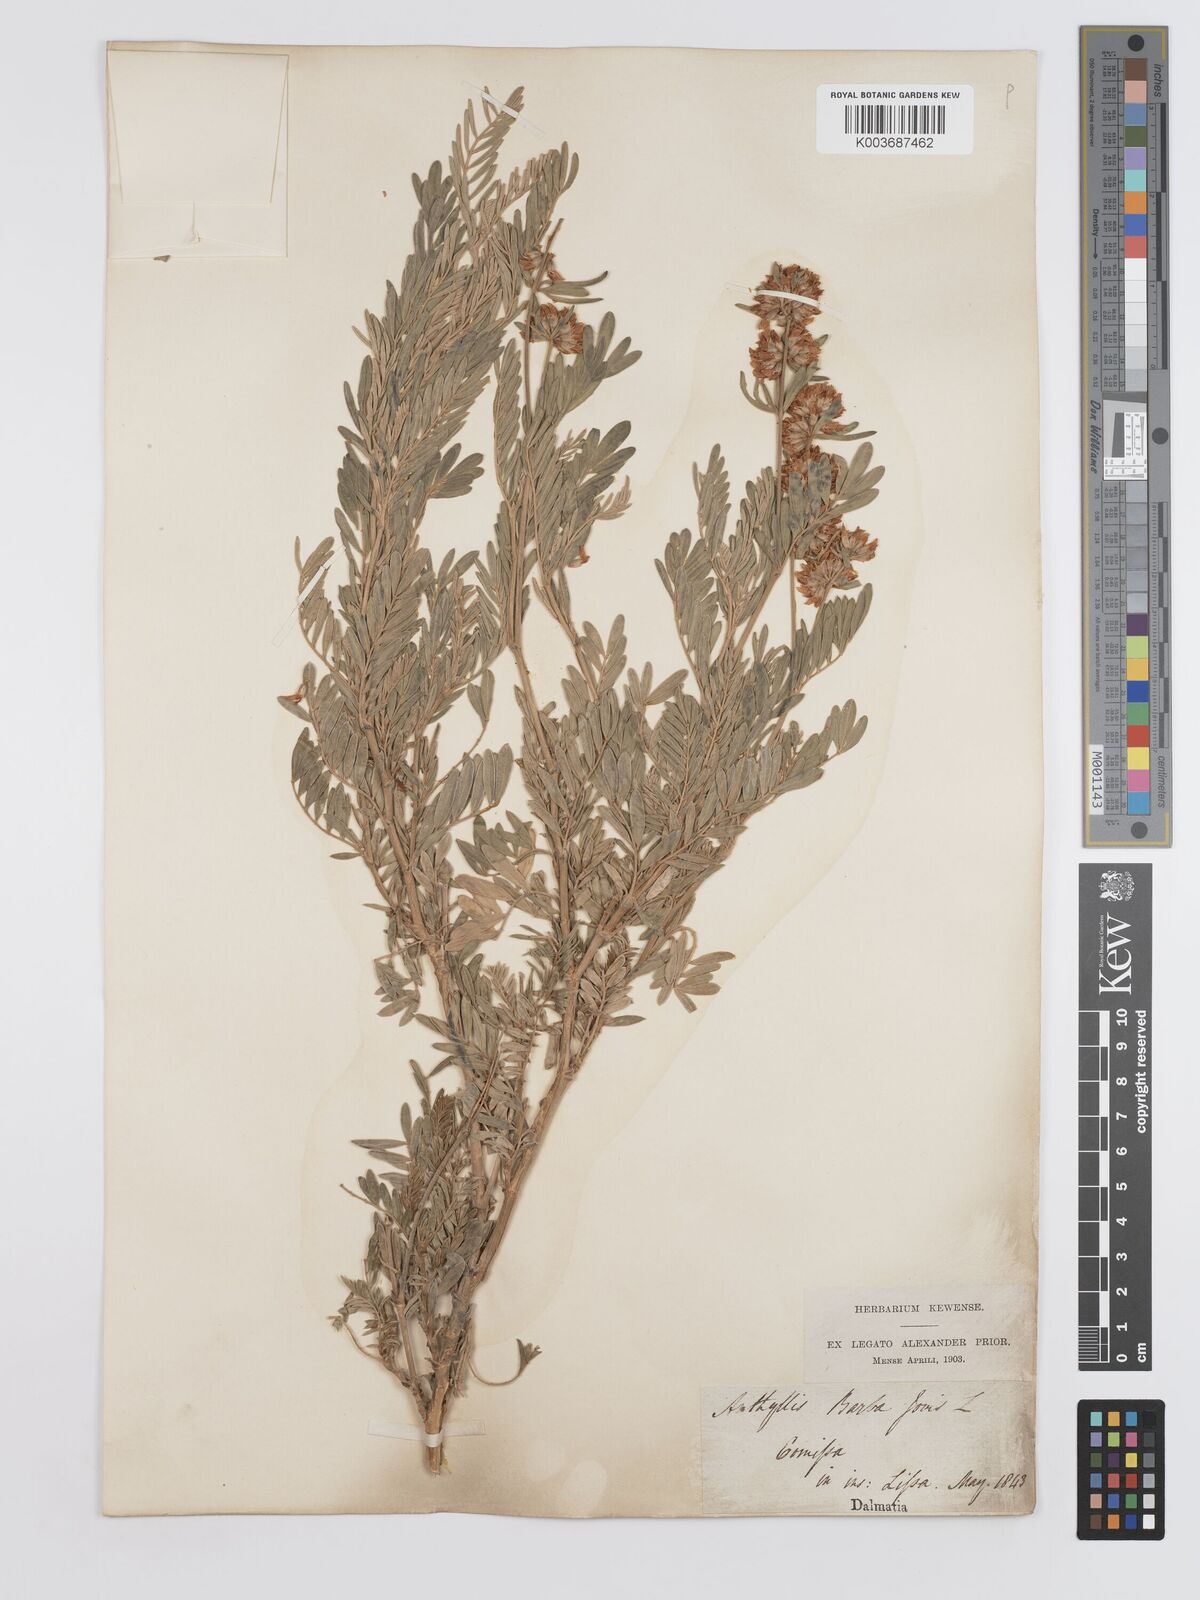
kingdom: Plantae
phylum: Tracheophyta
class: Magnoliopsida
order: Fabales
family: Fabaceae
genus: Anthyllis
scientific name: Anthyllis barba-jovis
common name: Jupiter's-beard
